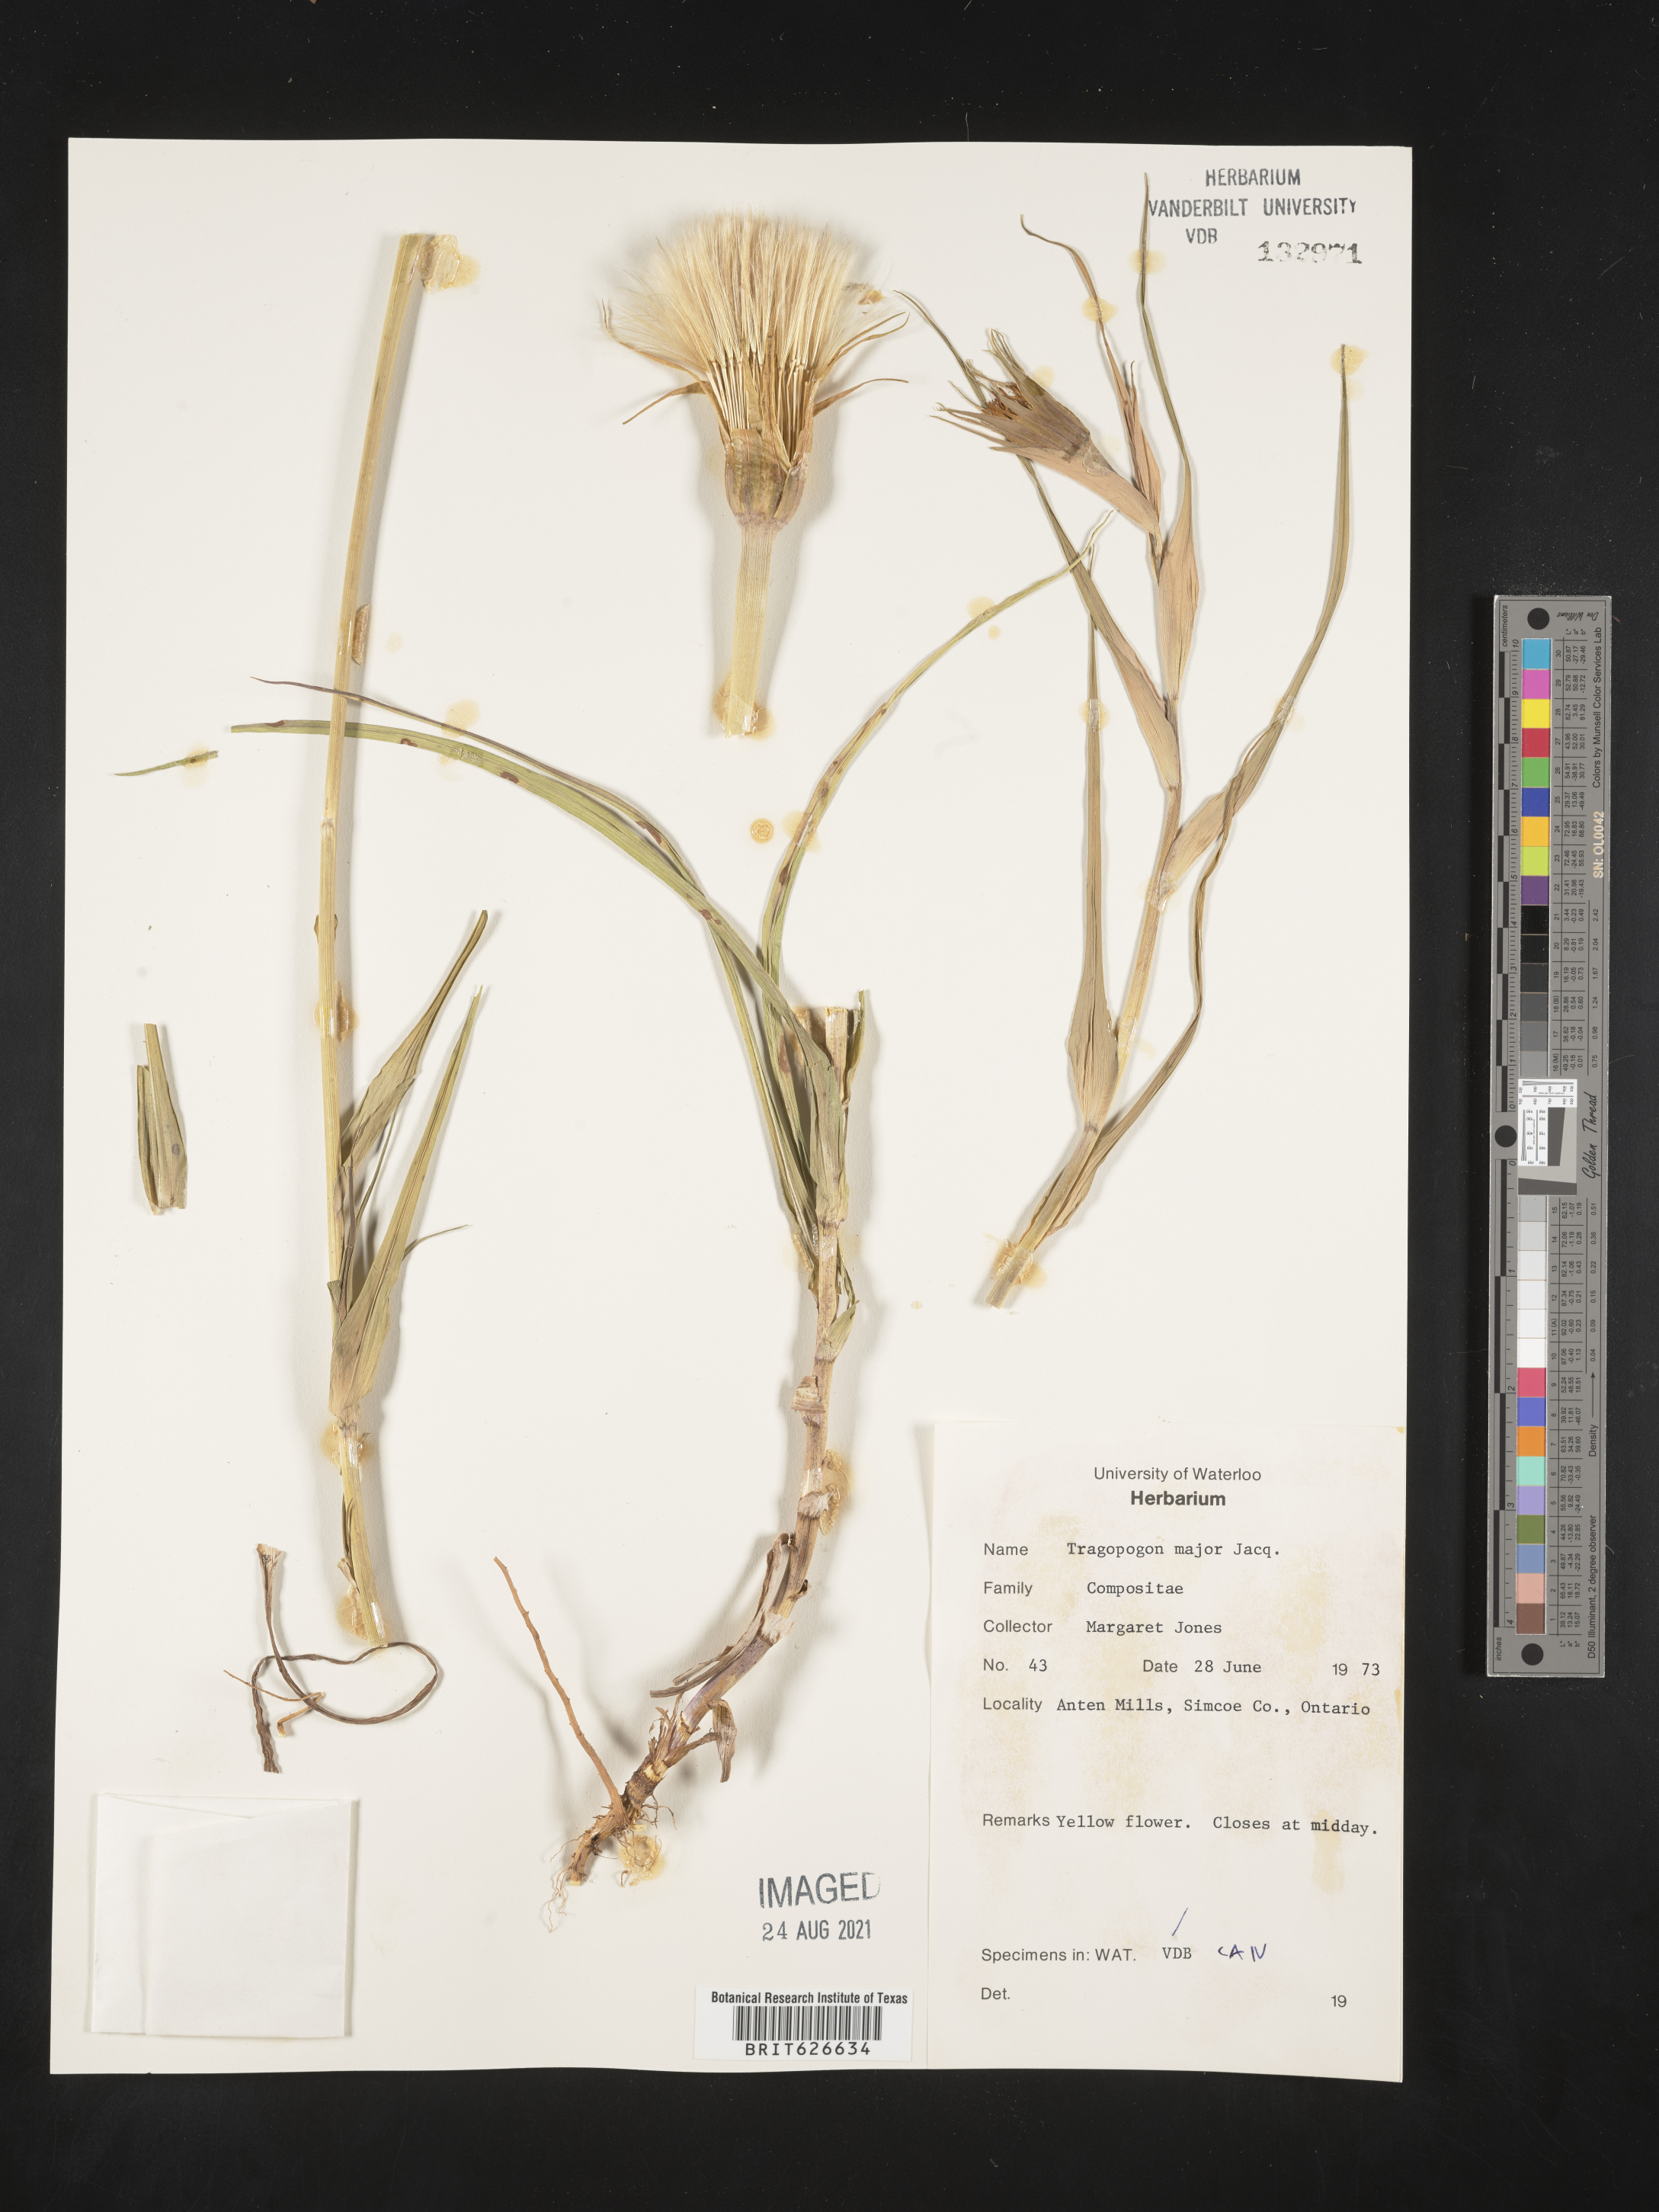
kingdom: Plantae
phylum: Tracheophyta
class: Magnoliopsida
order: Asterales
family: Asteraceae
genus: Tragopogon
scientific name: Tragopogon dubius
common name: Yellow salsify
